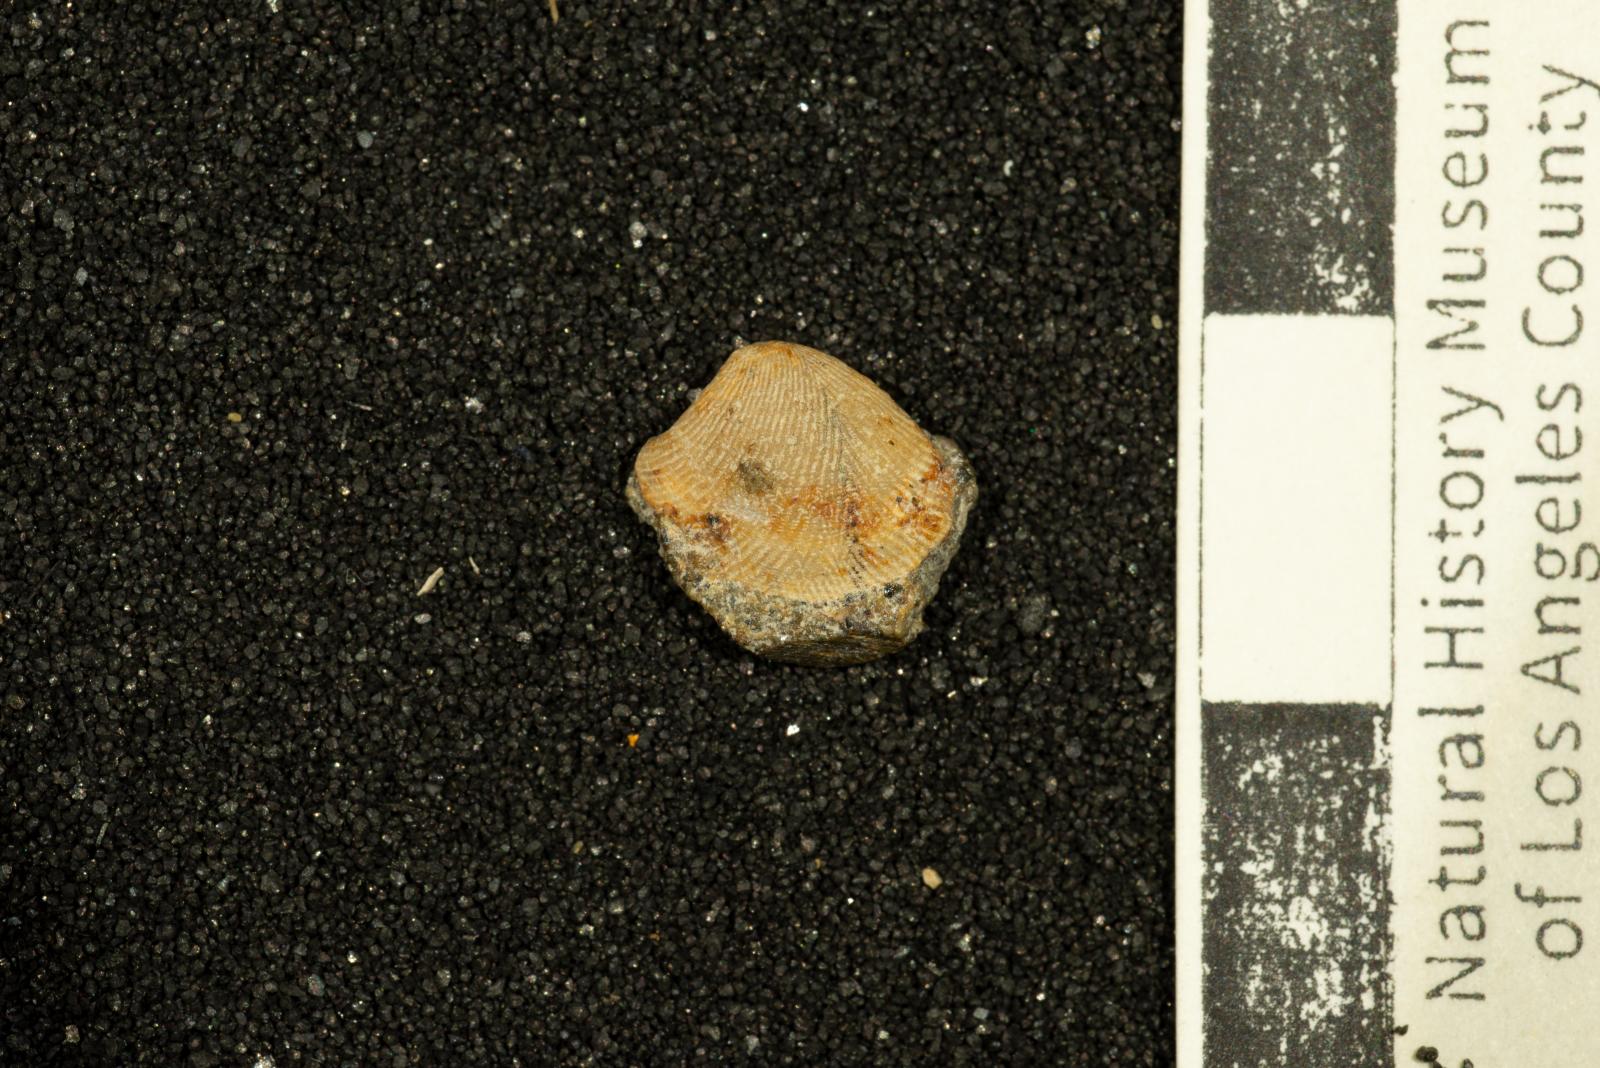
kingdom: Animalia
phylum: Mollusca
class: Bivalvia
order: Nuculida
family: Nuculidae
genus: Acila
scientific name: Acila demessa
